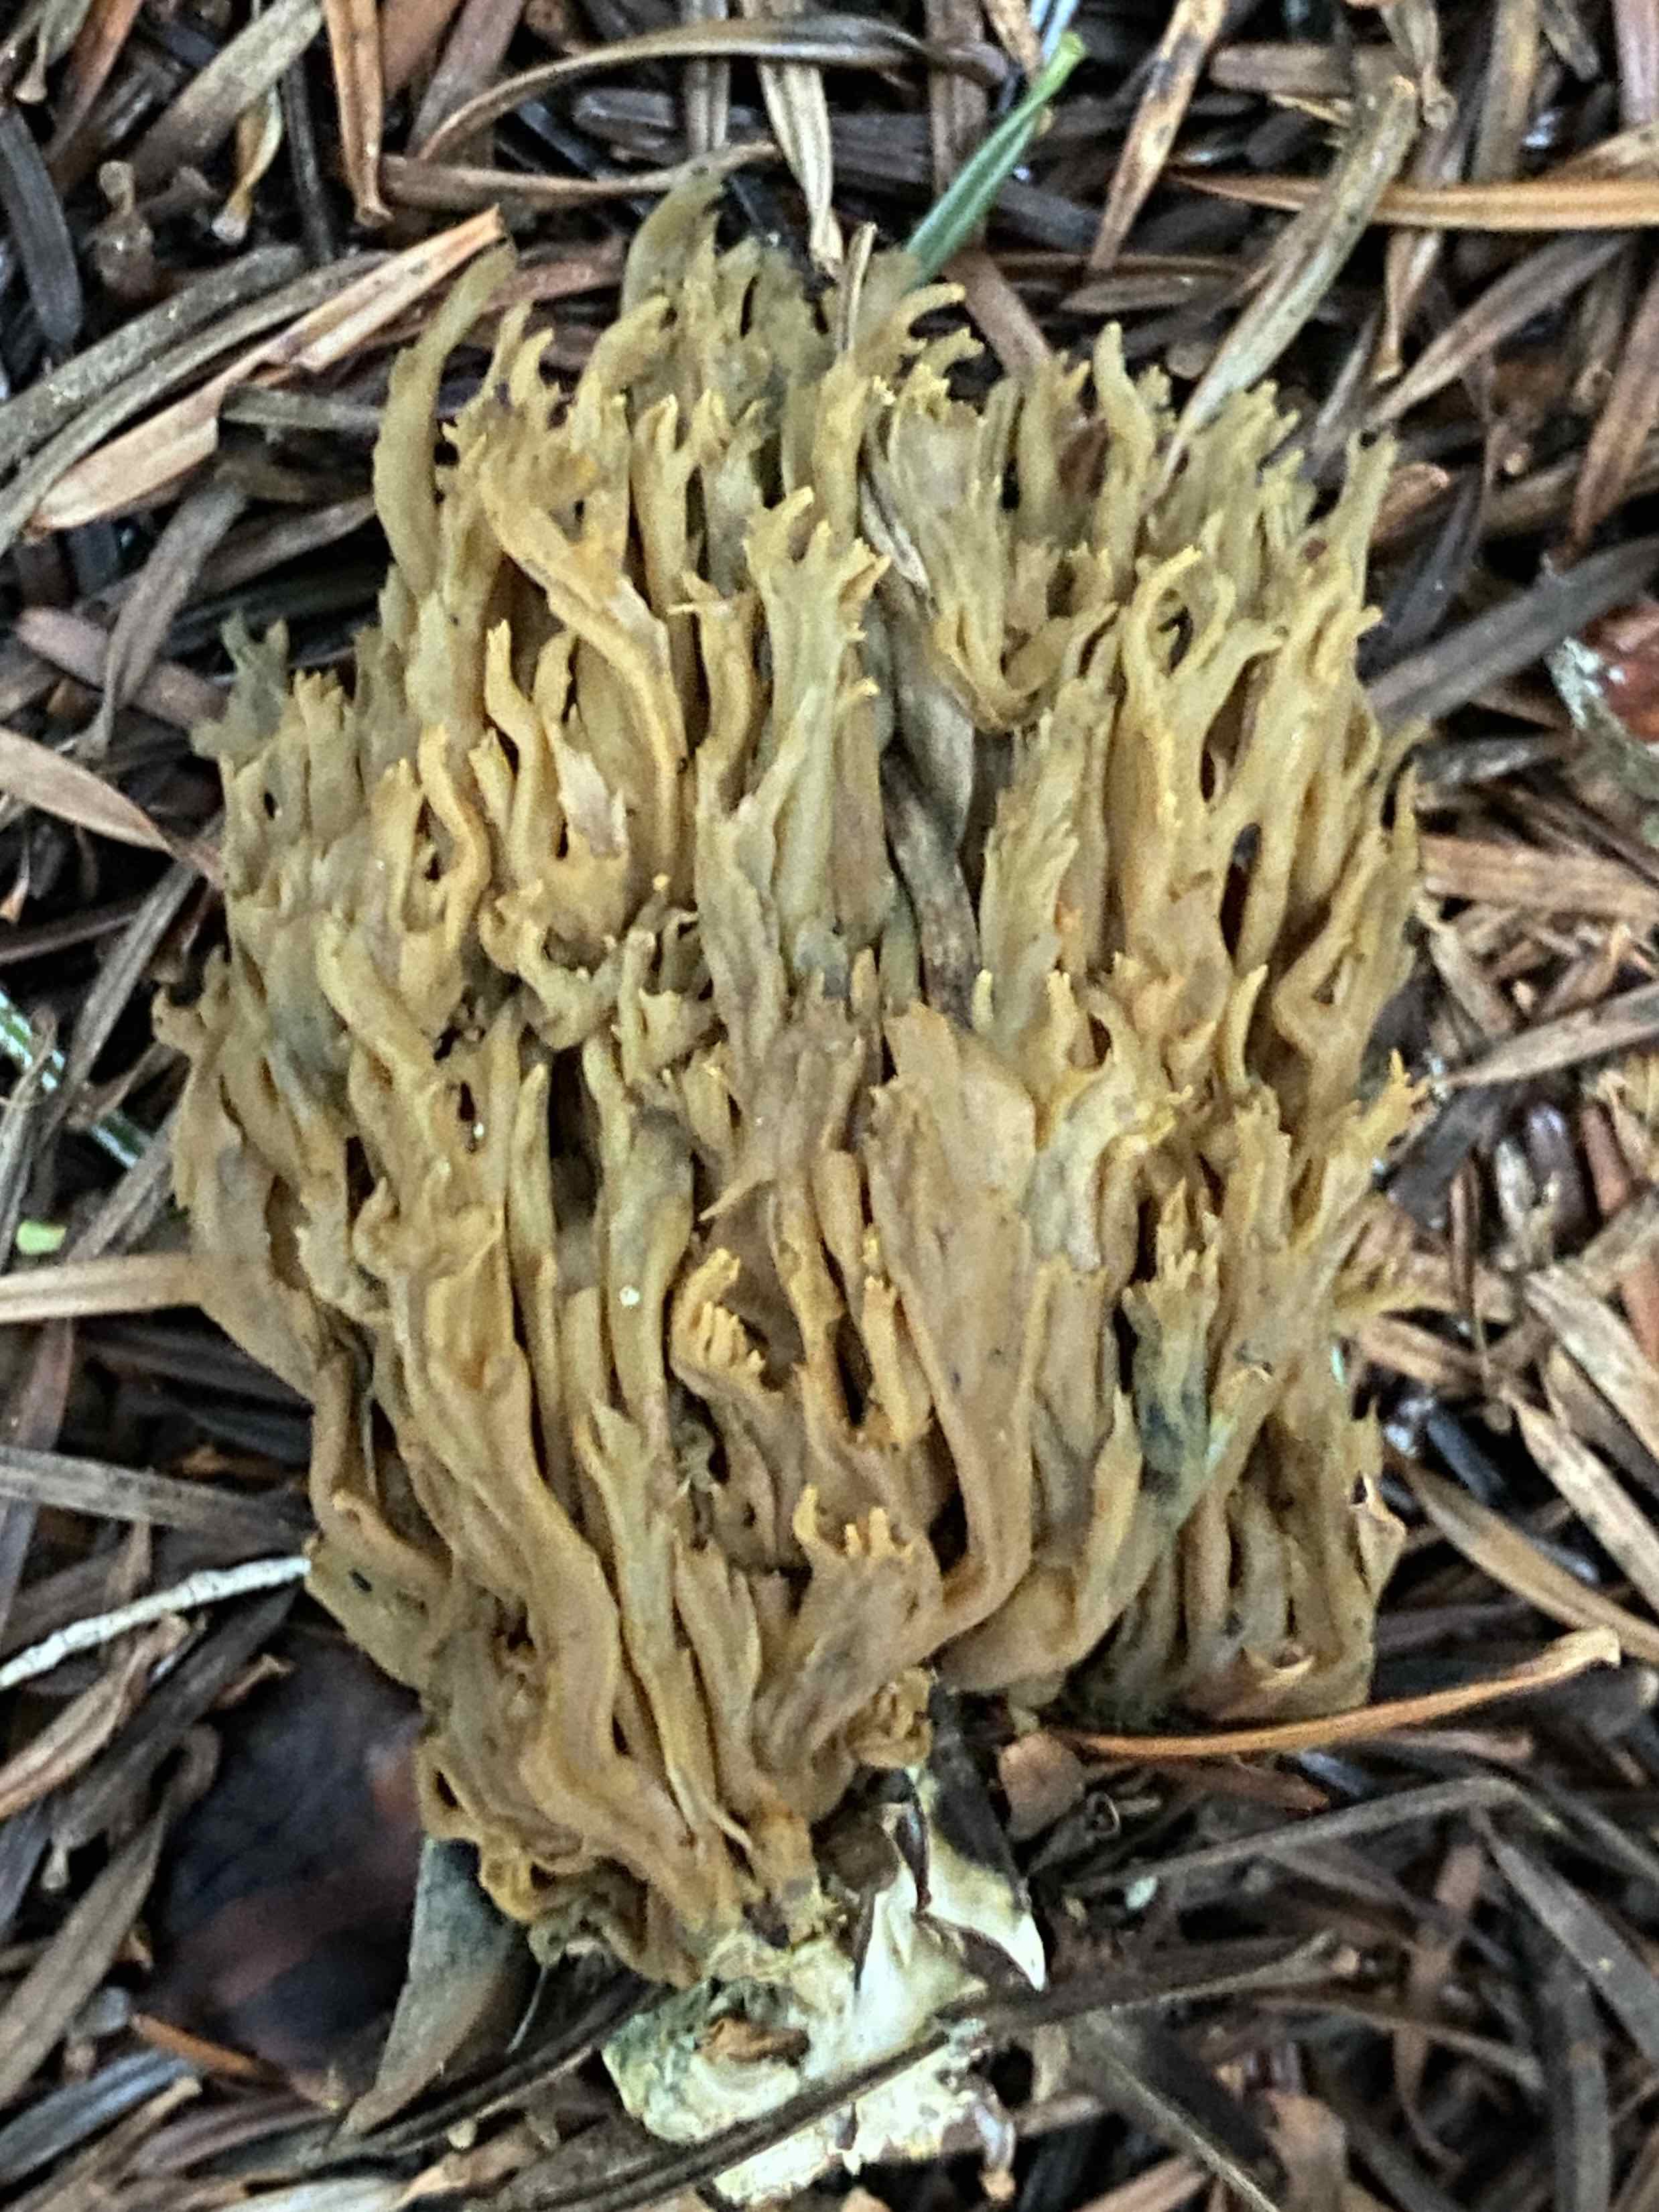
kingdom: Fungi
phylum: Basidiomycota
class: Agaricomycetes
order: Gomphales
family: Gomphaceae
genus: Phaeoclavulina
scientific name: Phaeoclavulina abietina
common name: gulgrøn koralsvamp
